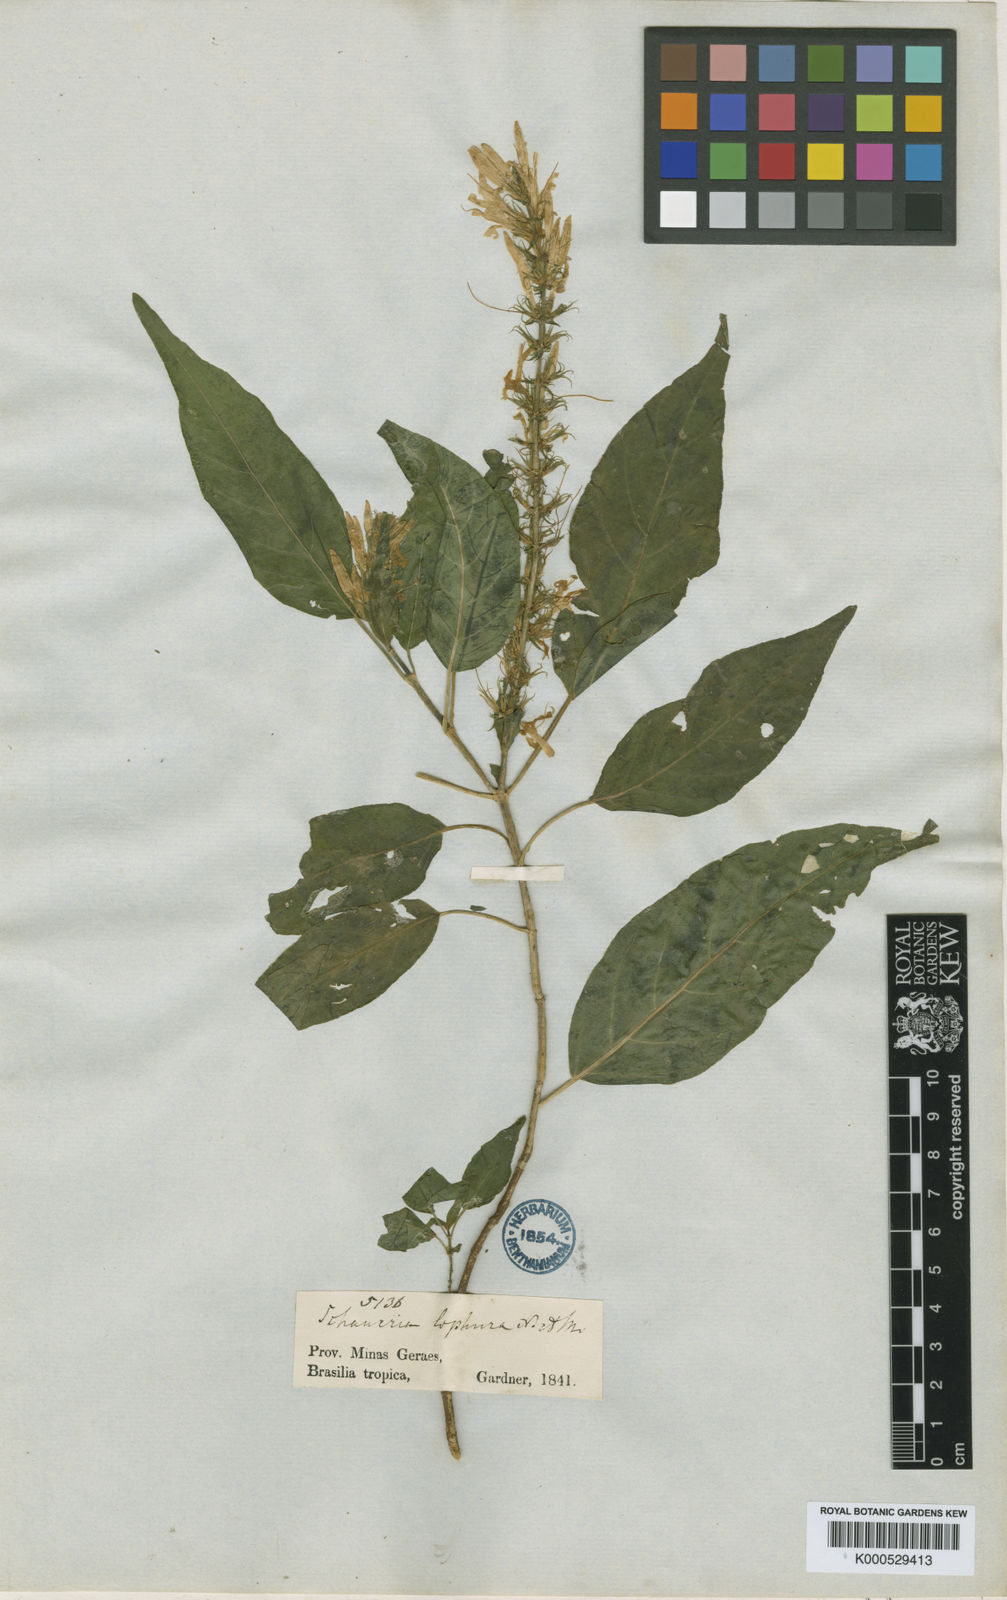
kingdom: Plantae
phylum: Tracheophyta
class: Magnoliopsida
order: Lamiales
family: Acanthaceae
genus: Schaueria
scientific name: Schaueria litoralis
